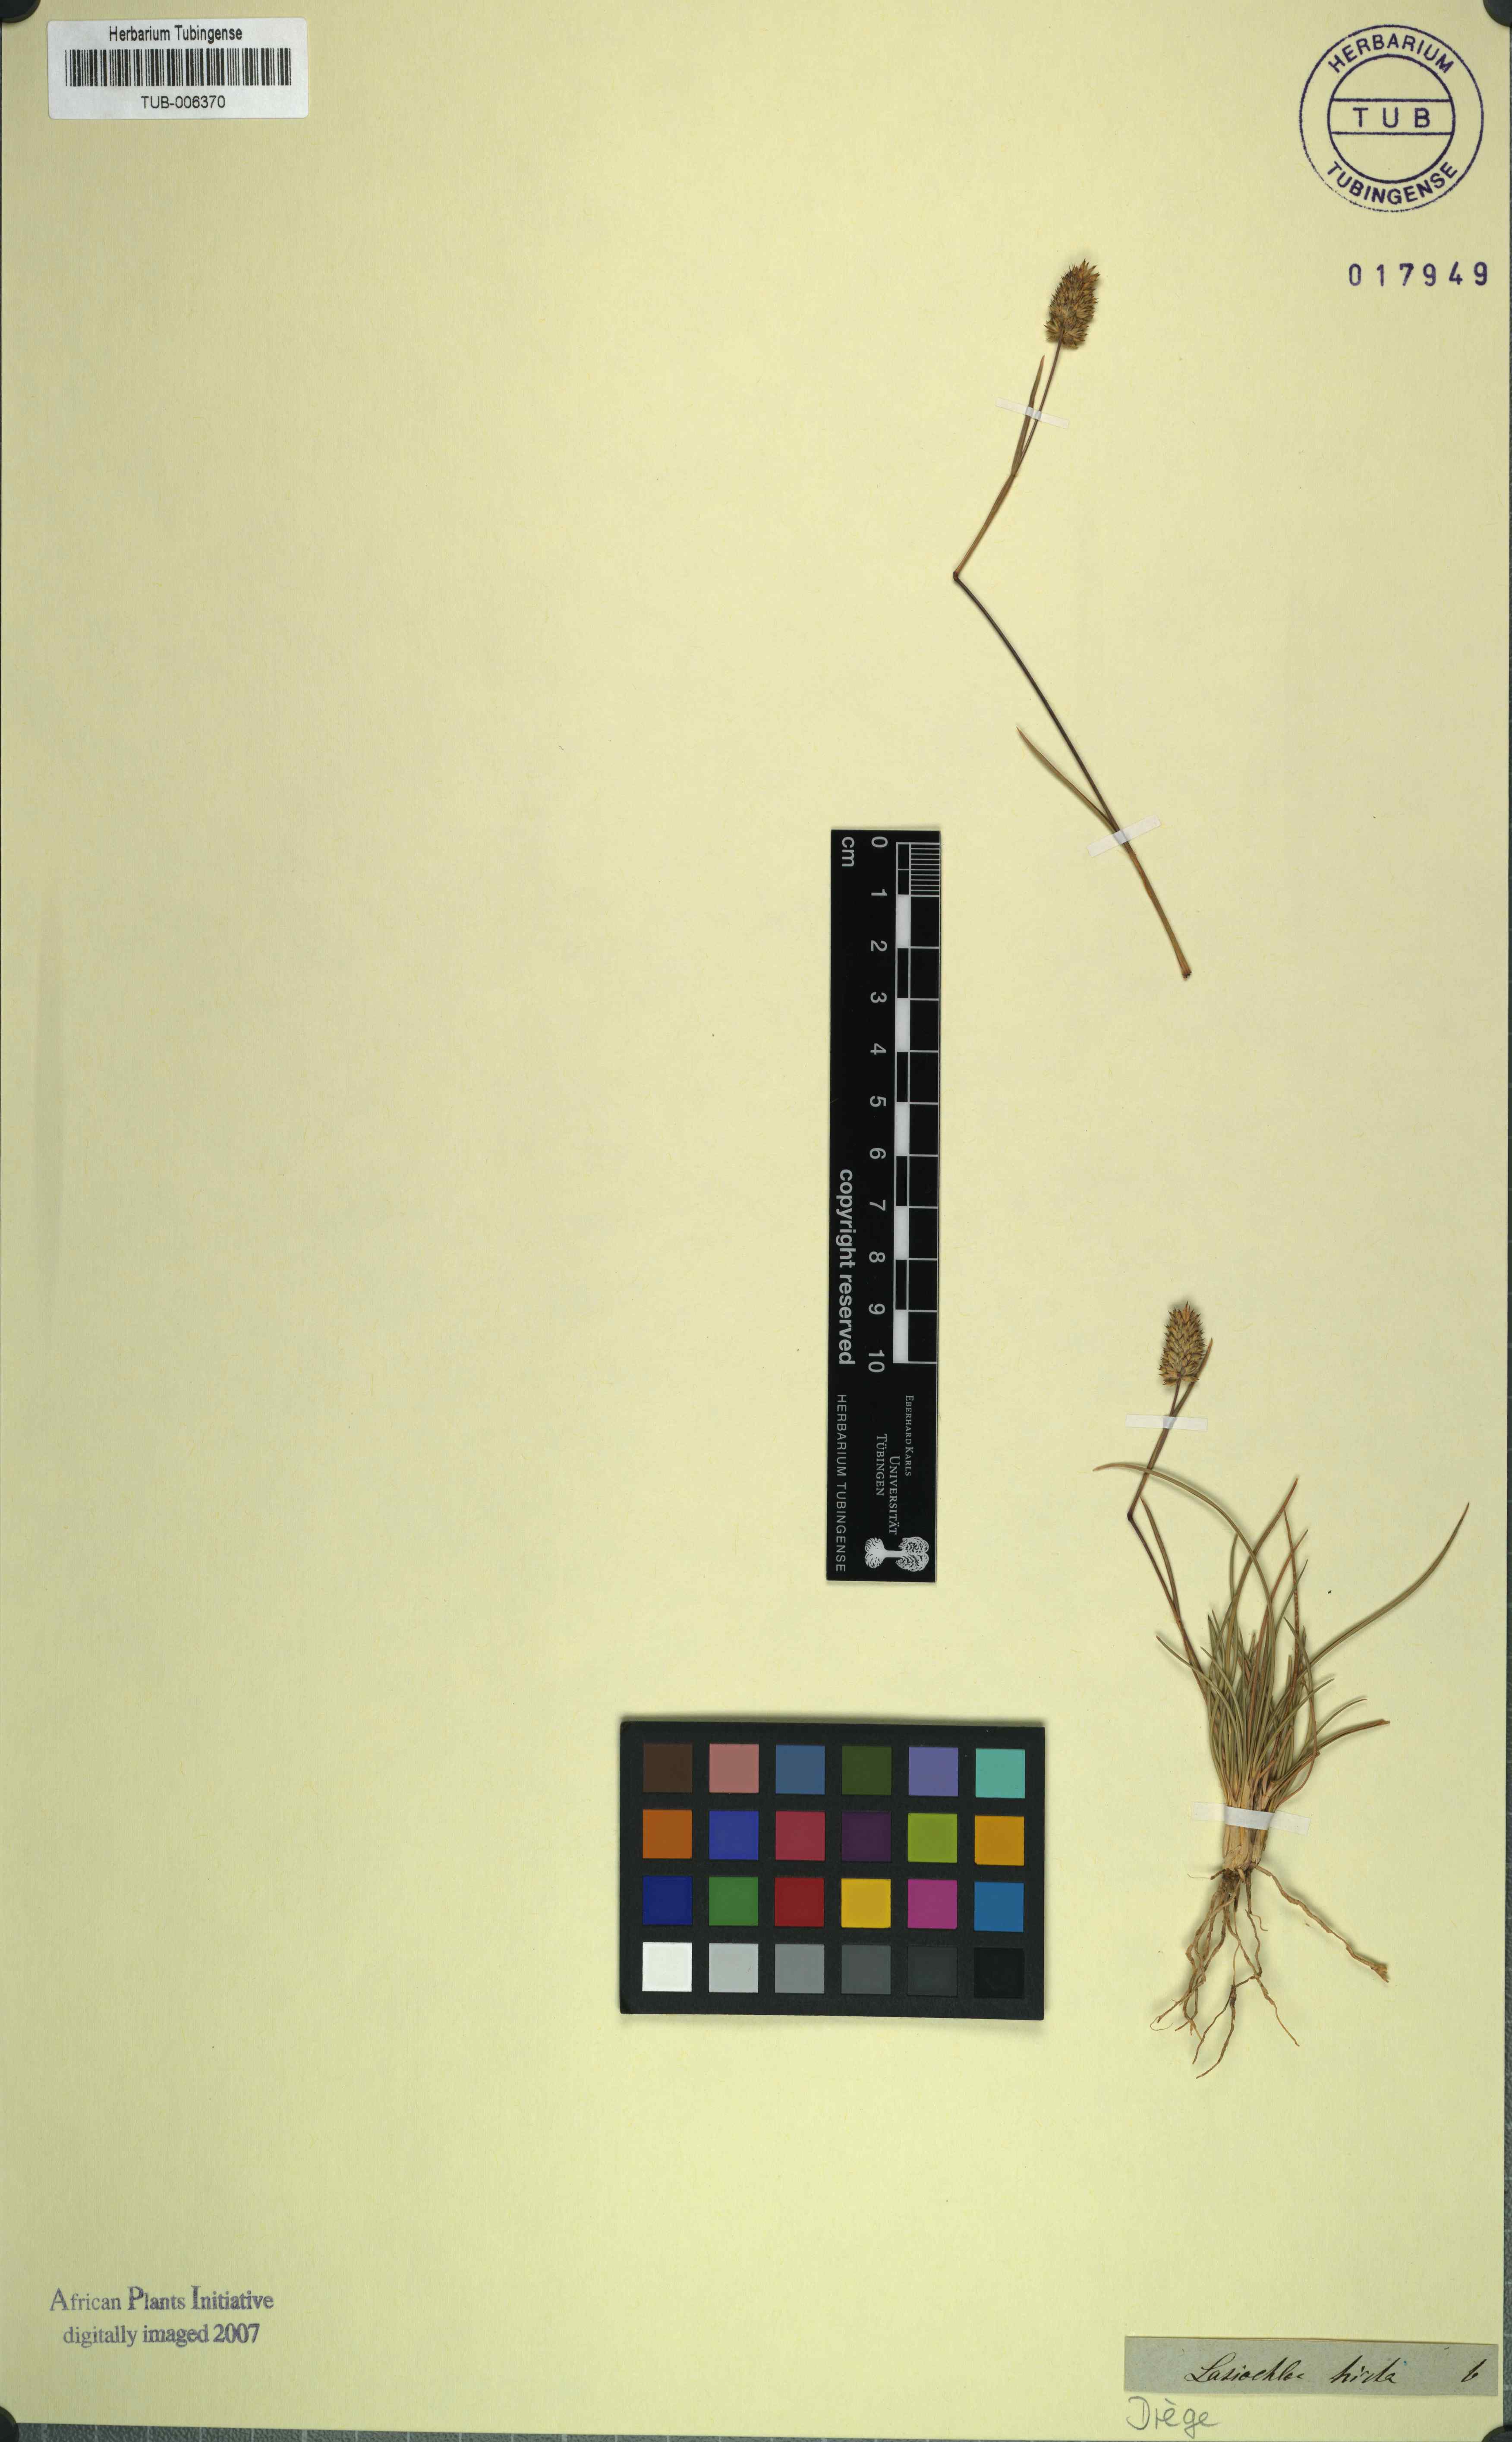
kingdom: Plantae
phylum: Tracheophyta
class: Liliopsida
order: Poales
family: Poaceae
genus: Tribolium
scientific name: Tribolium hispidum
